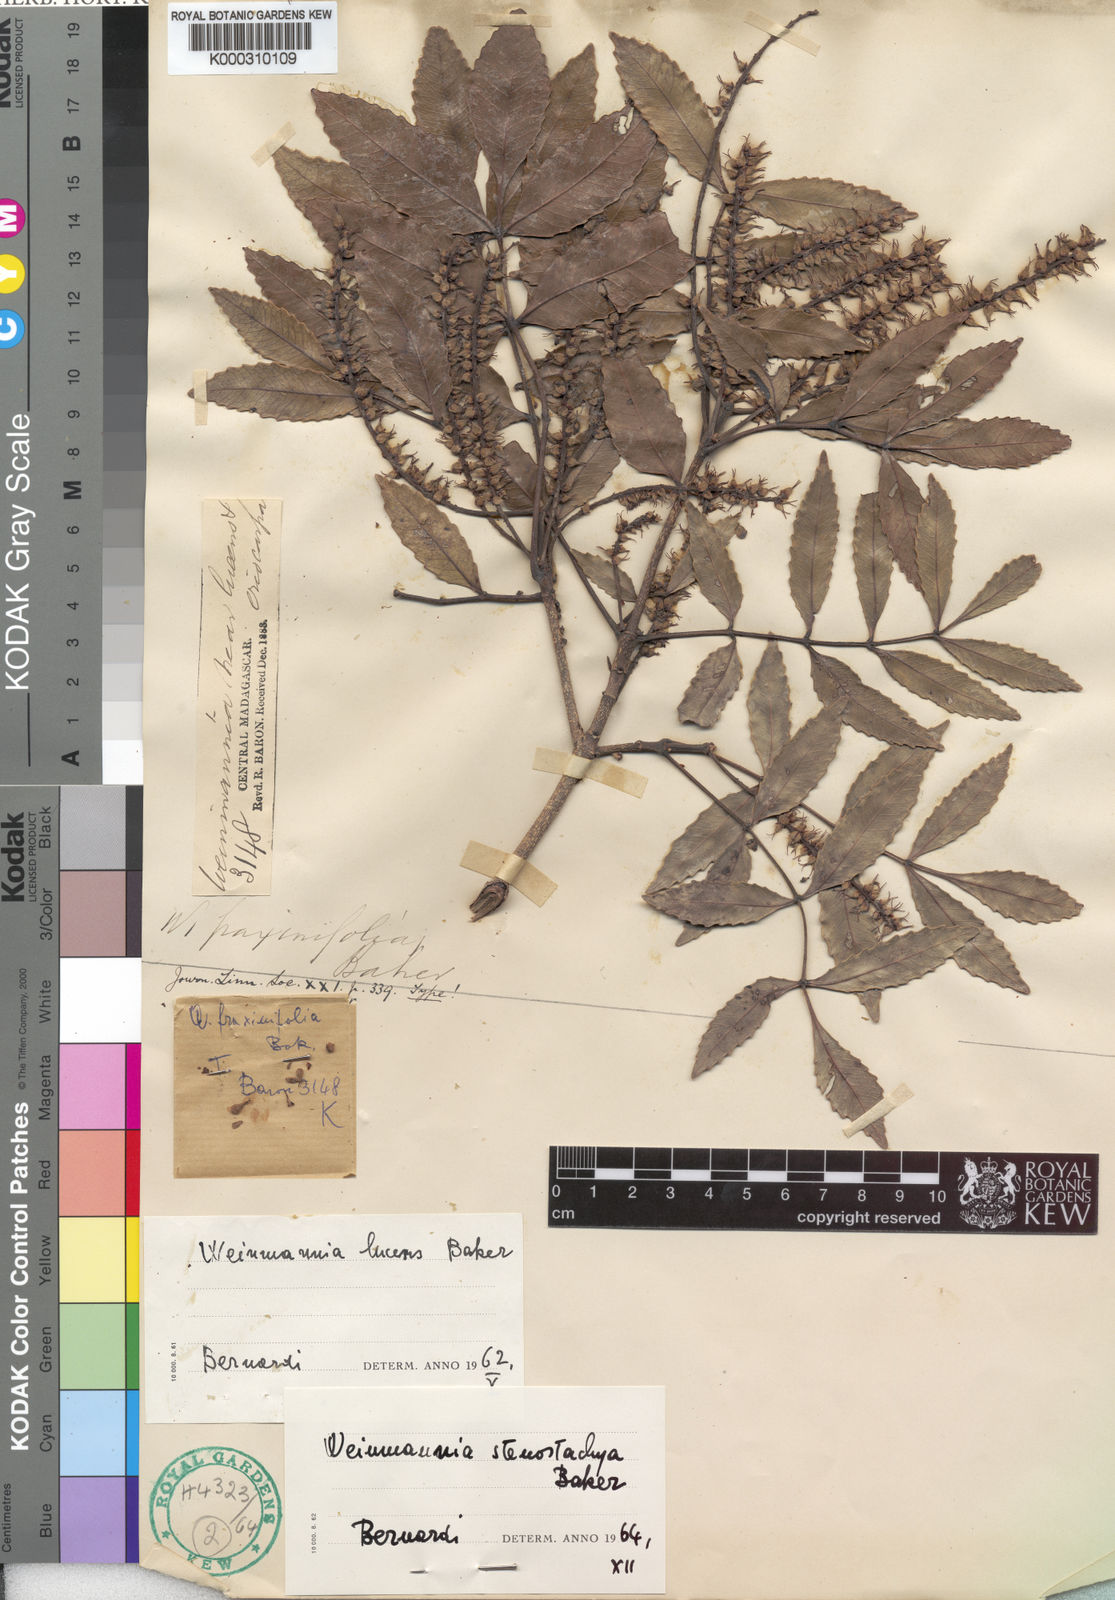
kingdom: Plantae
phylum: Tracheophyta
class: Magnoliopsida
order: Oxalidales
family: Cunoniaceae
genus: Pterophylla
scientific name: Pterophylla stenostachya
